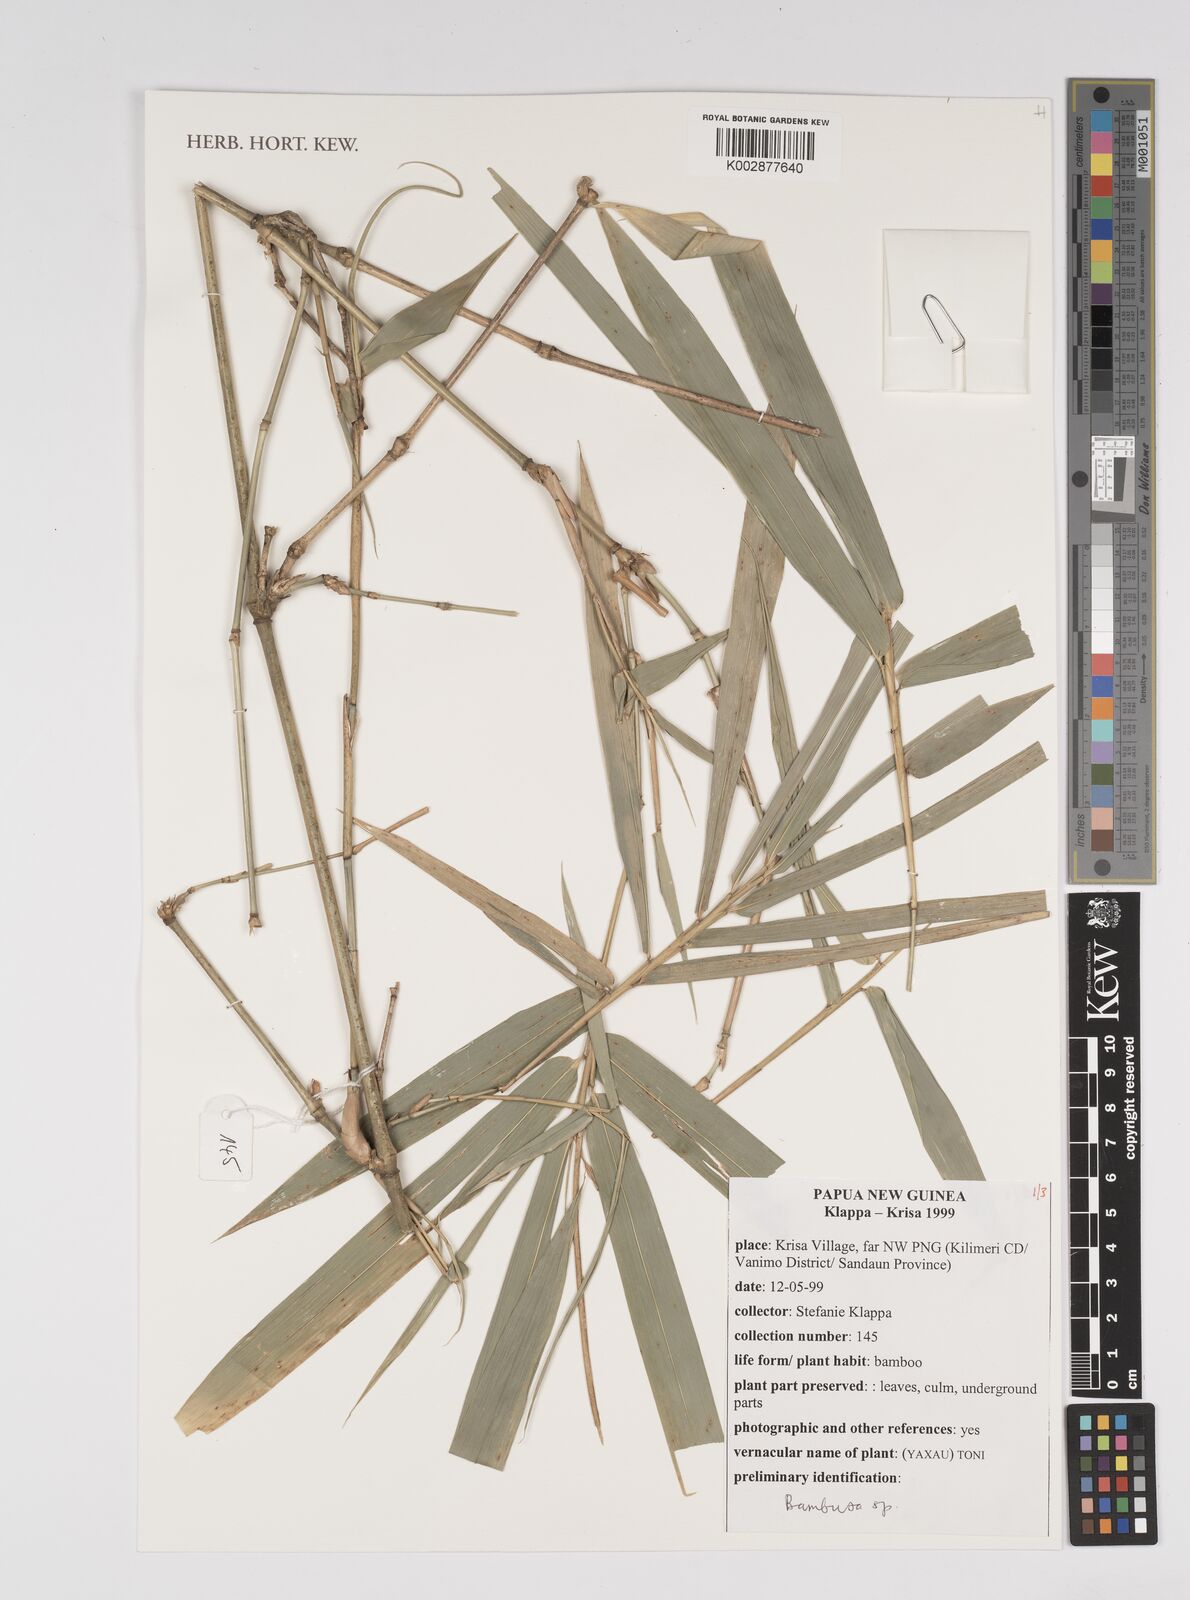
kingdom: Plantae
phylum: Tracheophyta
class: Liliopsida
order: Poales
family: Poaceae
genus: Bambusa
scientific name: Bambusa
